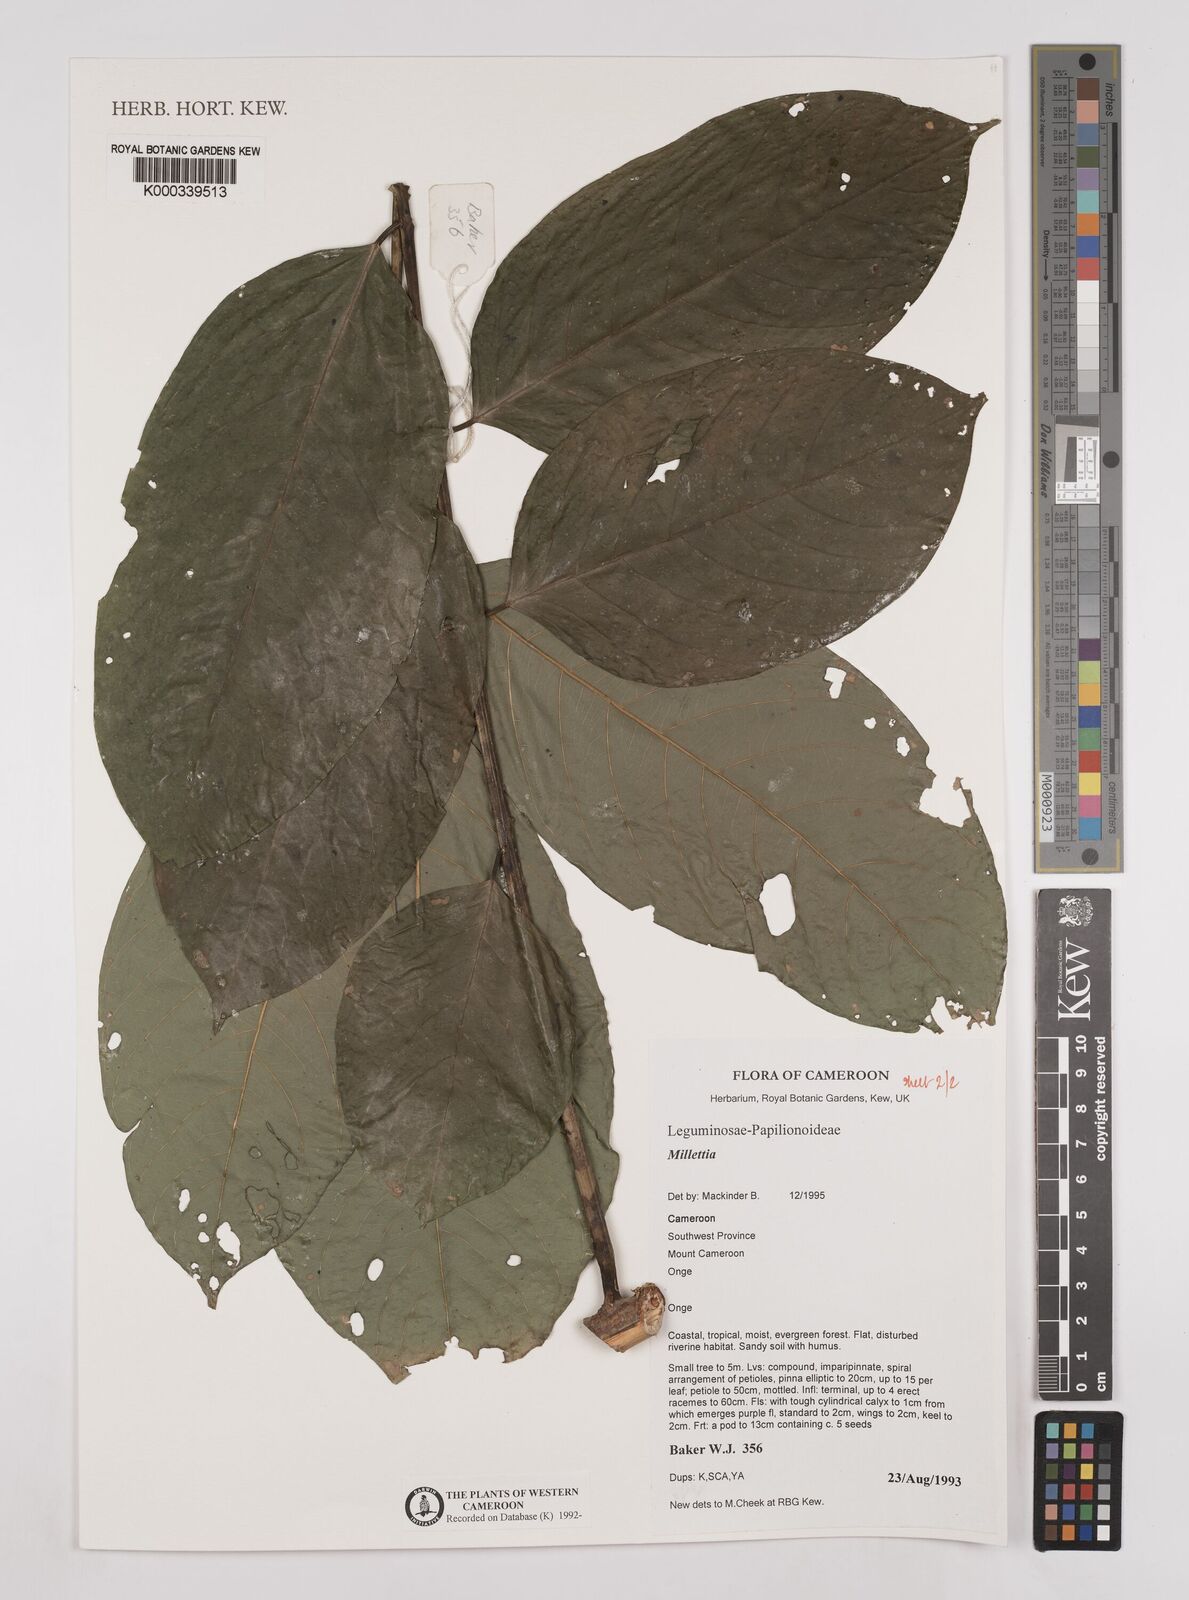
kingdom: Plantae
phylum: Tracheophyta
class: Magnoliopsida
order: Fabales
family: Fabaceae
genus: Millettia
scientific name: Millettia
